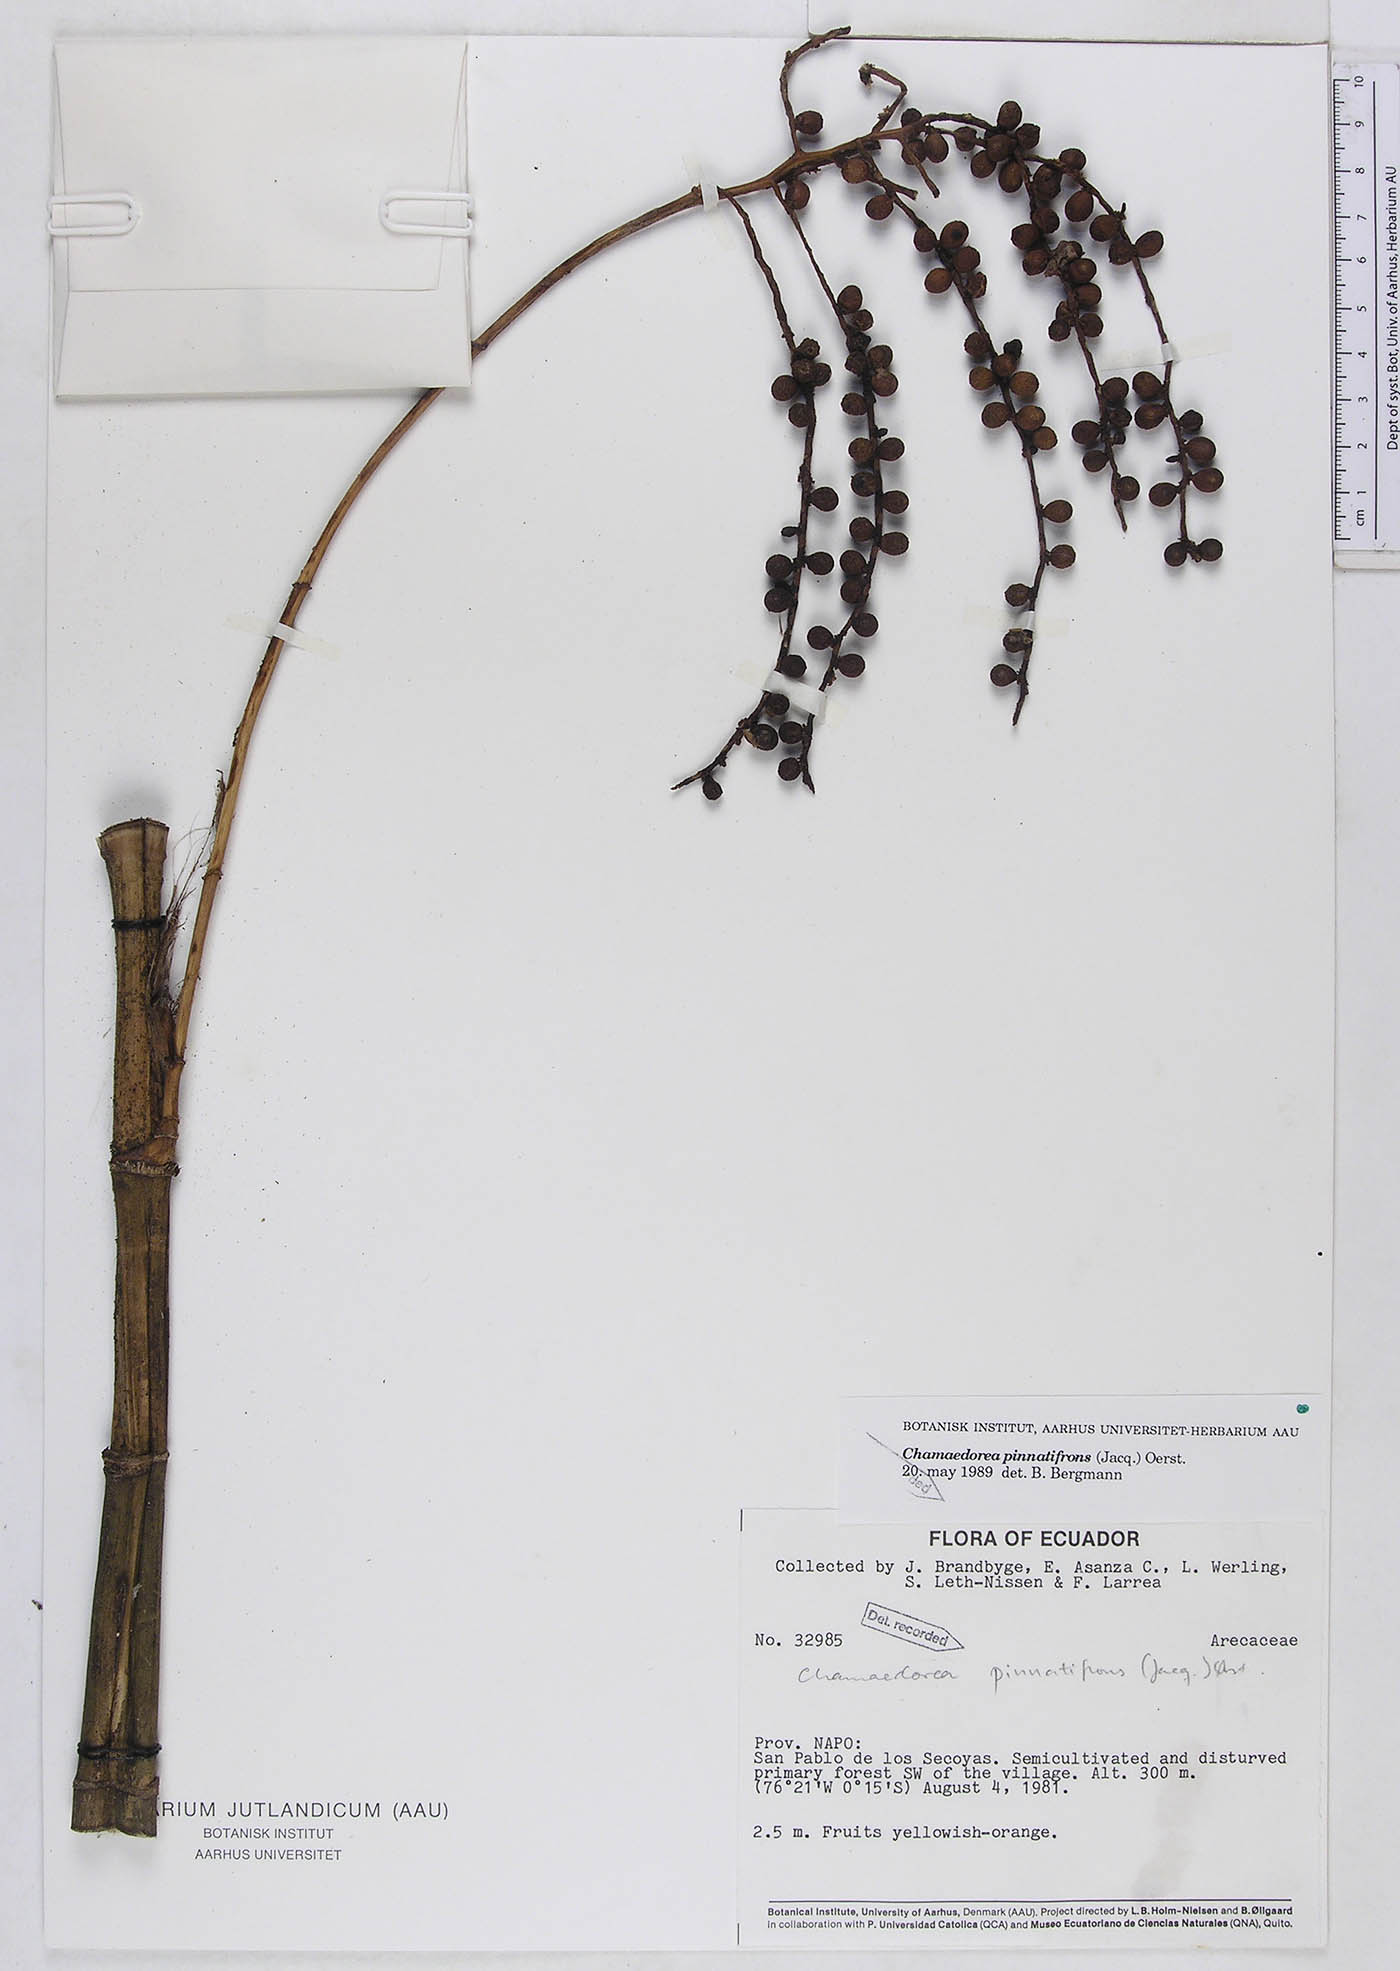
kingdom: Plantae
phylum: Tracheophyta
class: Liliopsida
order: Arecales
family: Arecaceae
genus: Chamaedorea
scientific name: Chamaedorea pinnatifrons
